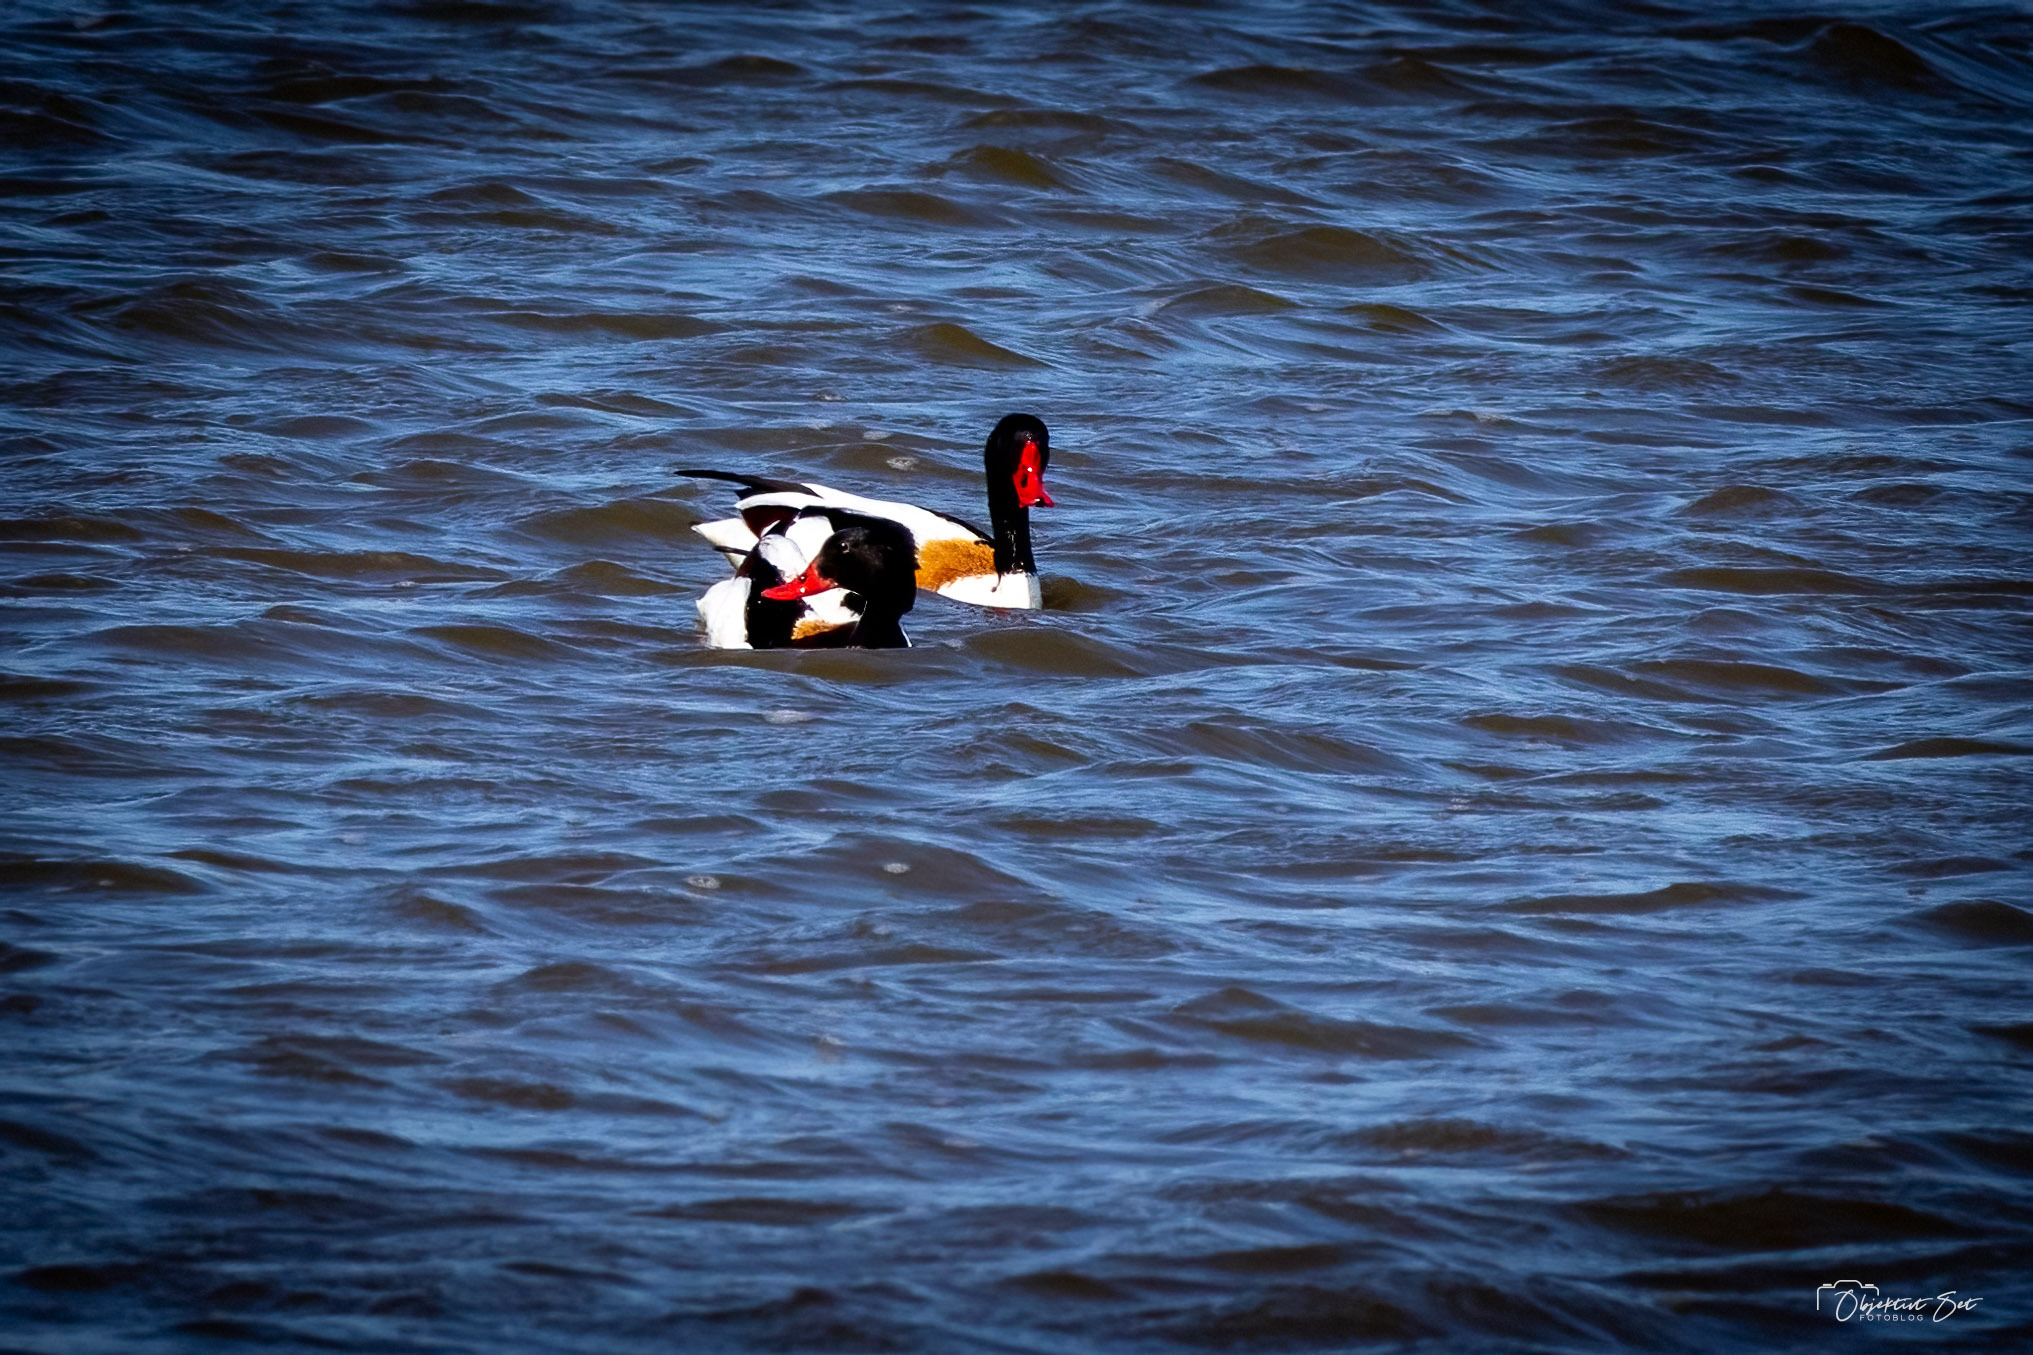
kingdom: Animalia
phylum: Chordata
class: Aves
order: Anseriformes
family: Anatidae
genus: Tadorna
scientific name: Tadorna tadorna
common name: Gravand
